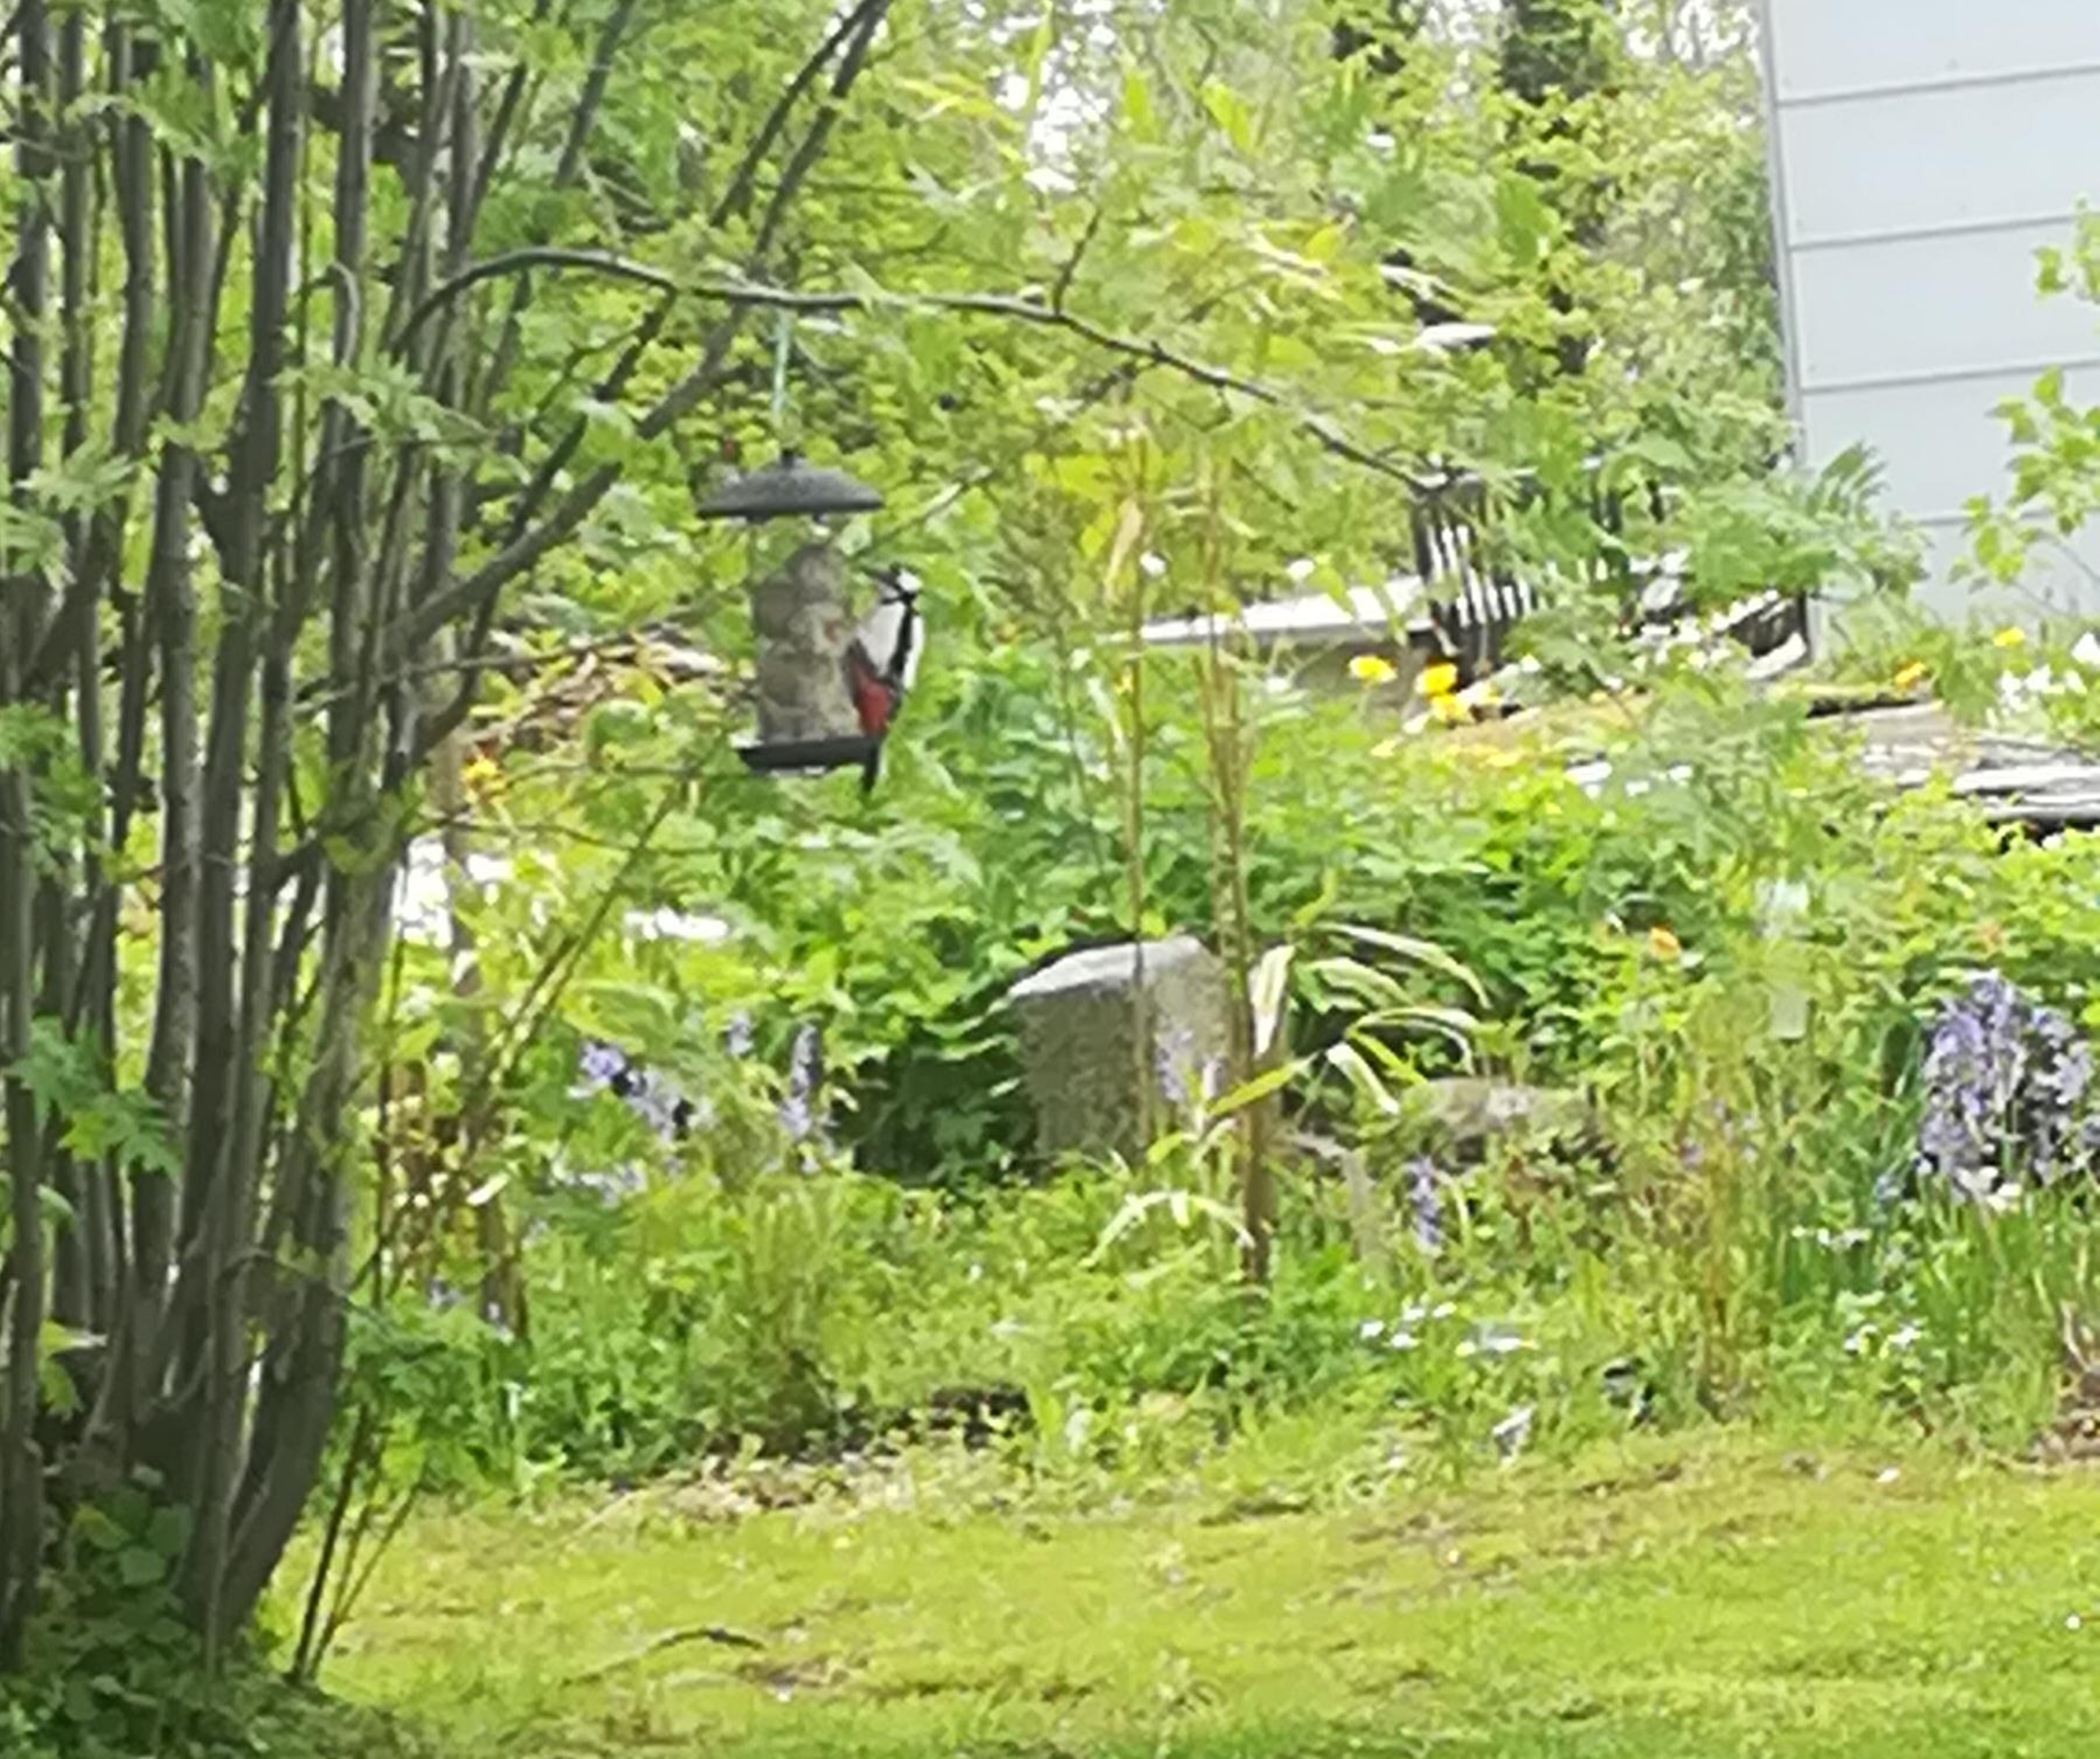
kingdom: Animalia
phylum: Chordata
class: Aves
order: Piciformes
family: Picidae
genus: Dendrocopos
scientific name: Dendrocopos major
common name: Stor flagspætte
